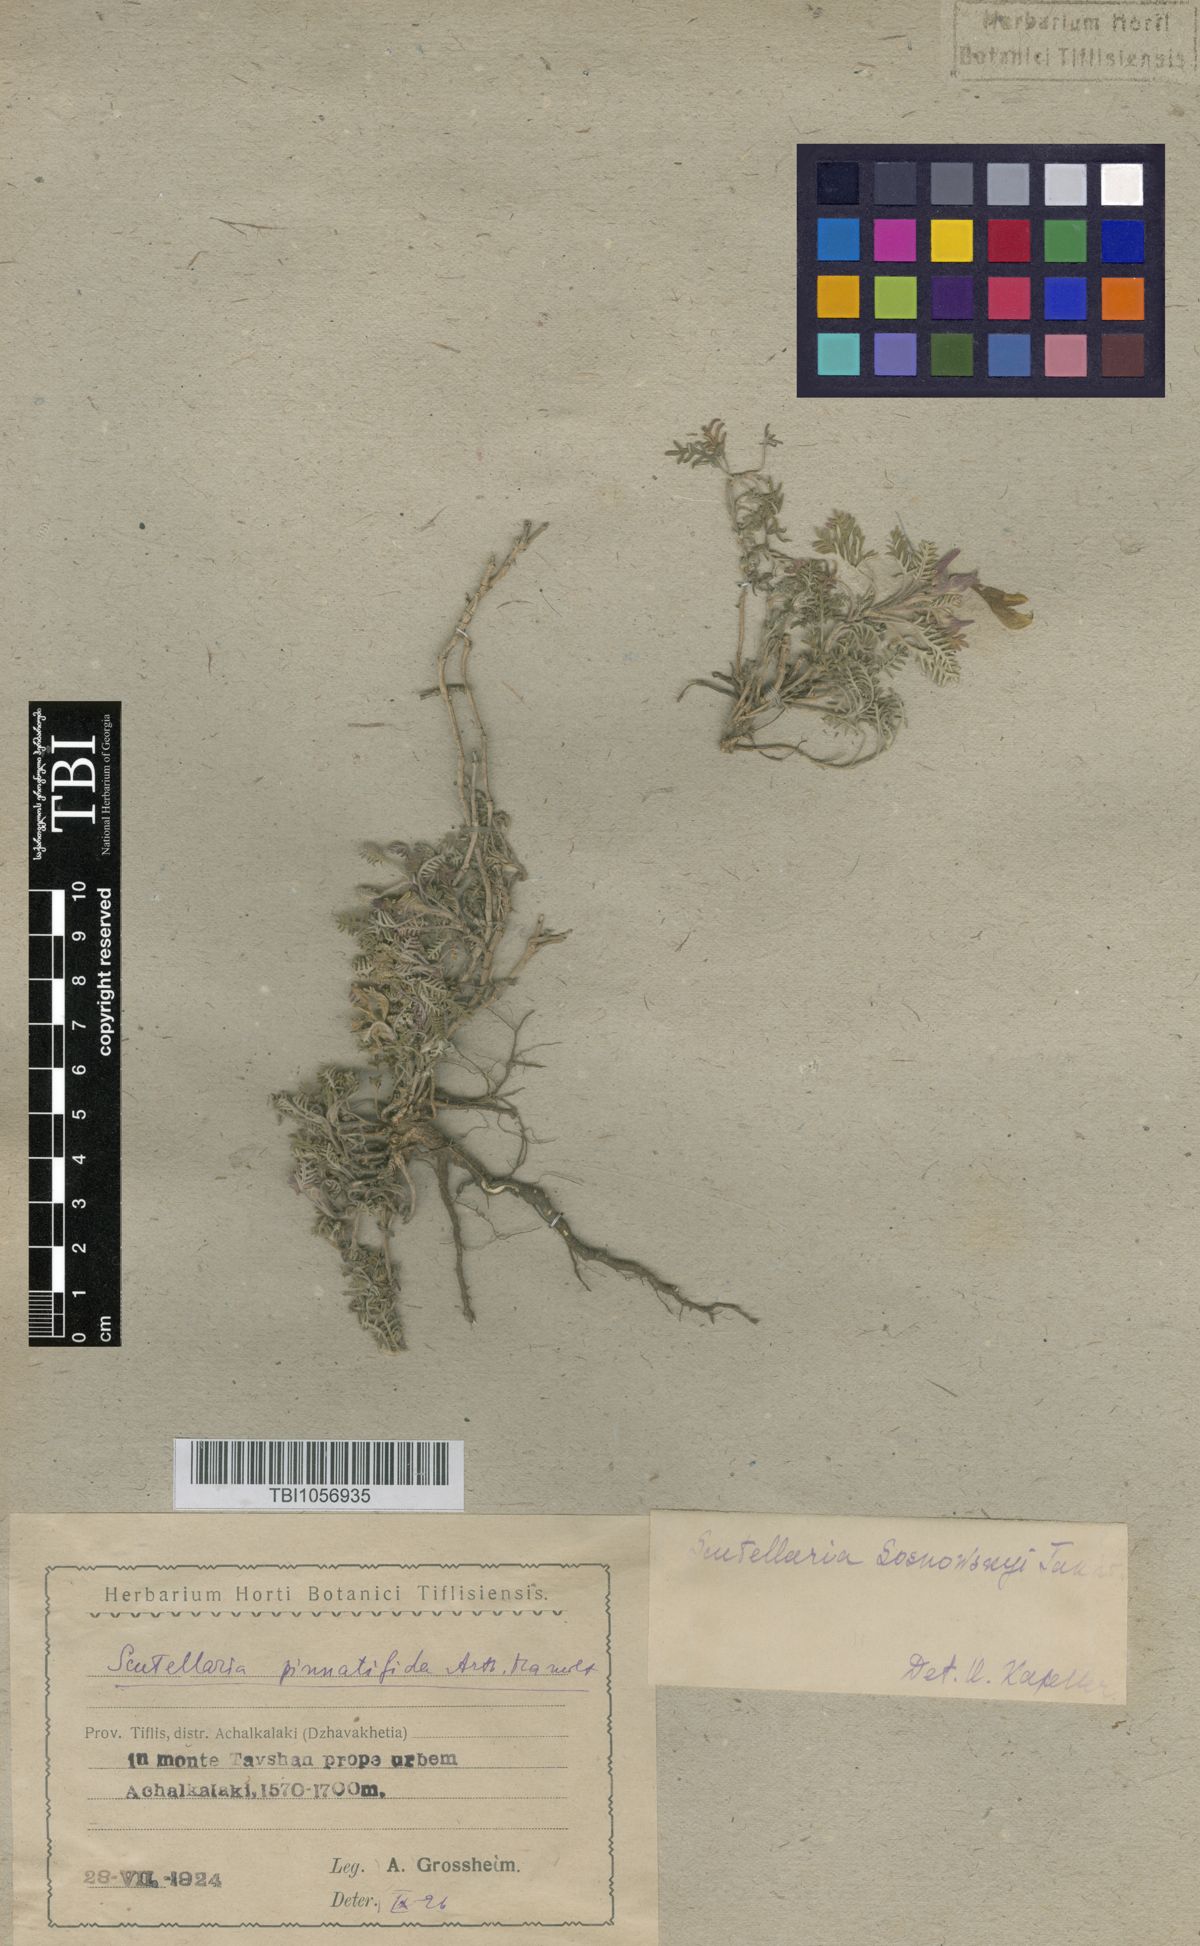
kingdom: Plantae
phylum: Tracheophyta
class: Magnoliopsida
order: Lamiales
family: Lamiaceae
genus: Scutellaria
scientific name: Scutellaria sosnowskyi
